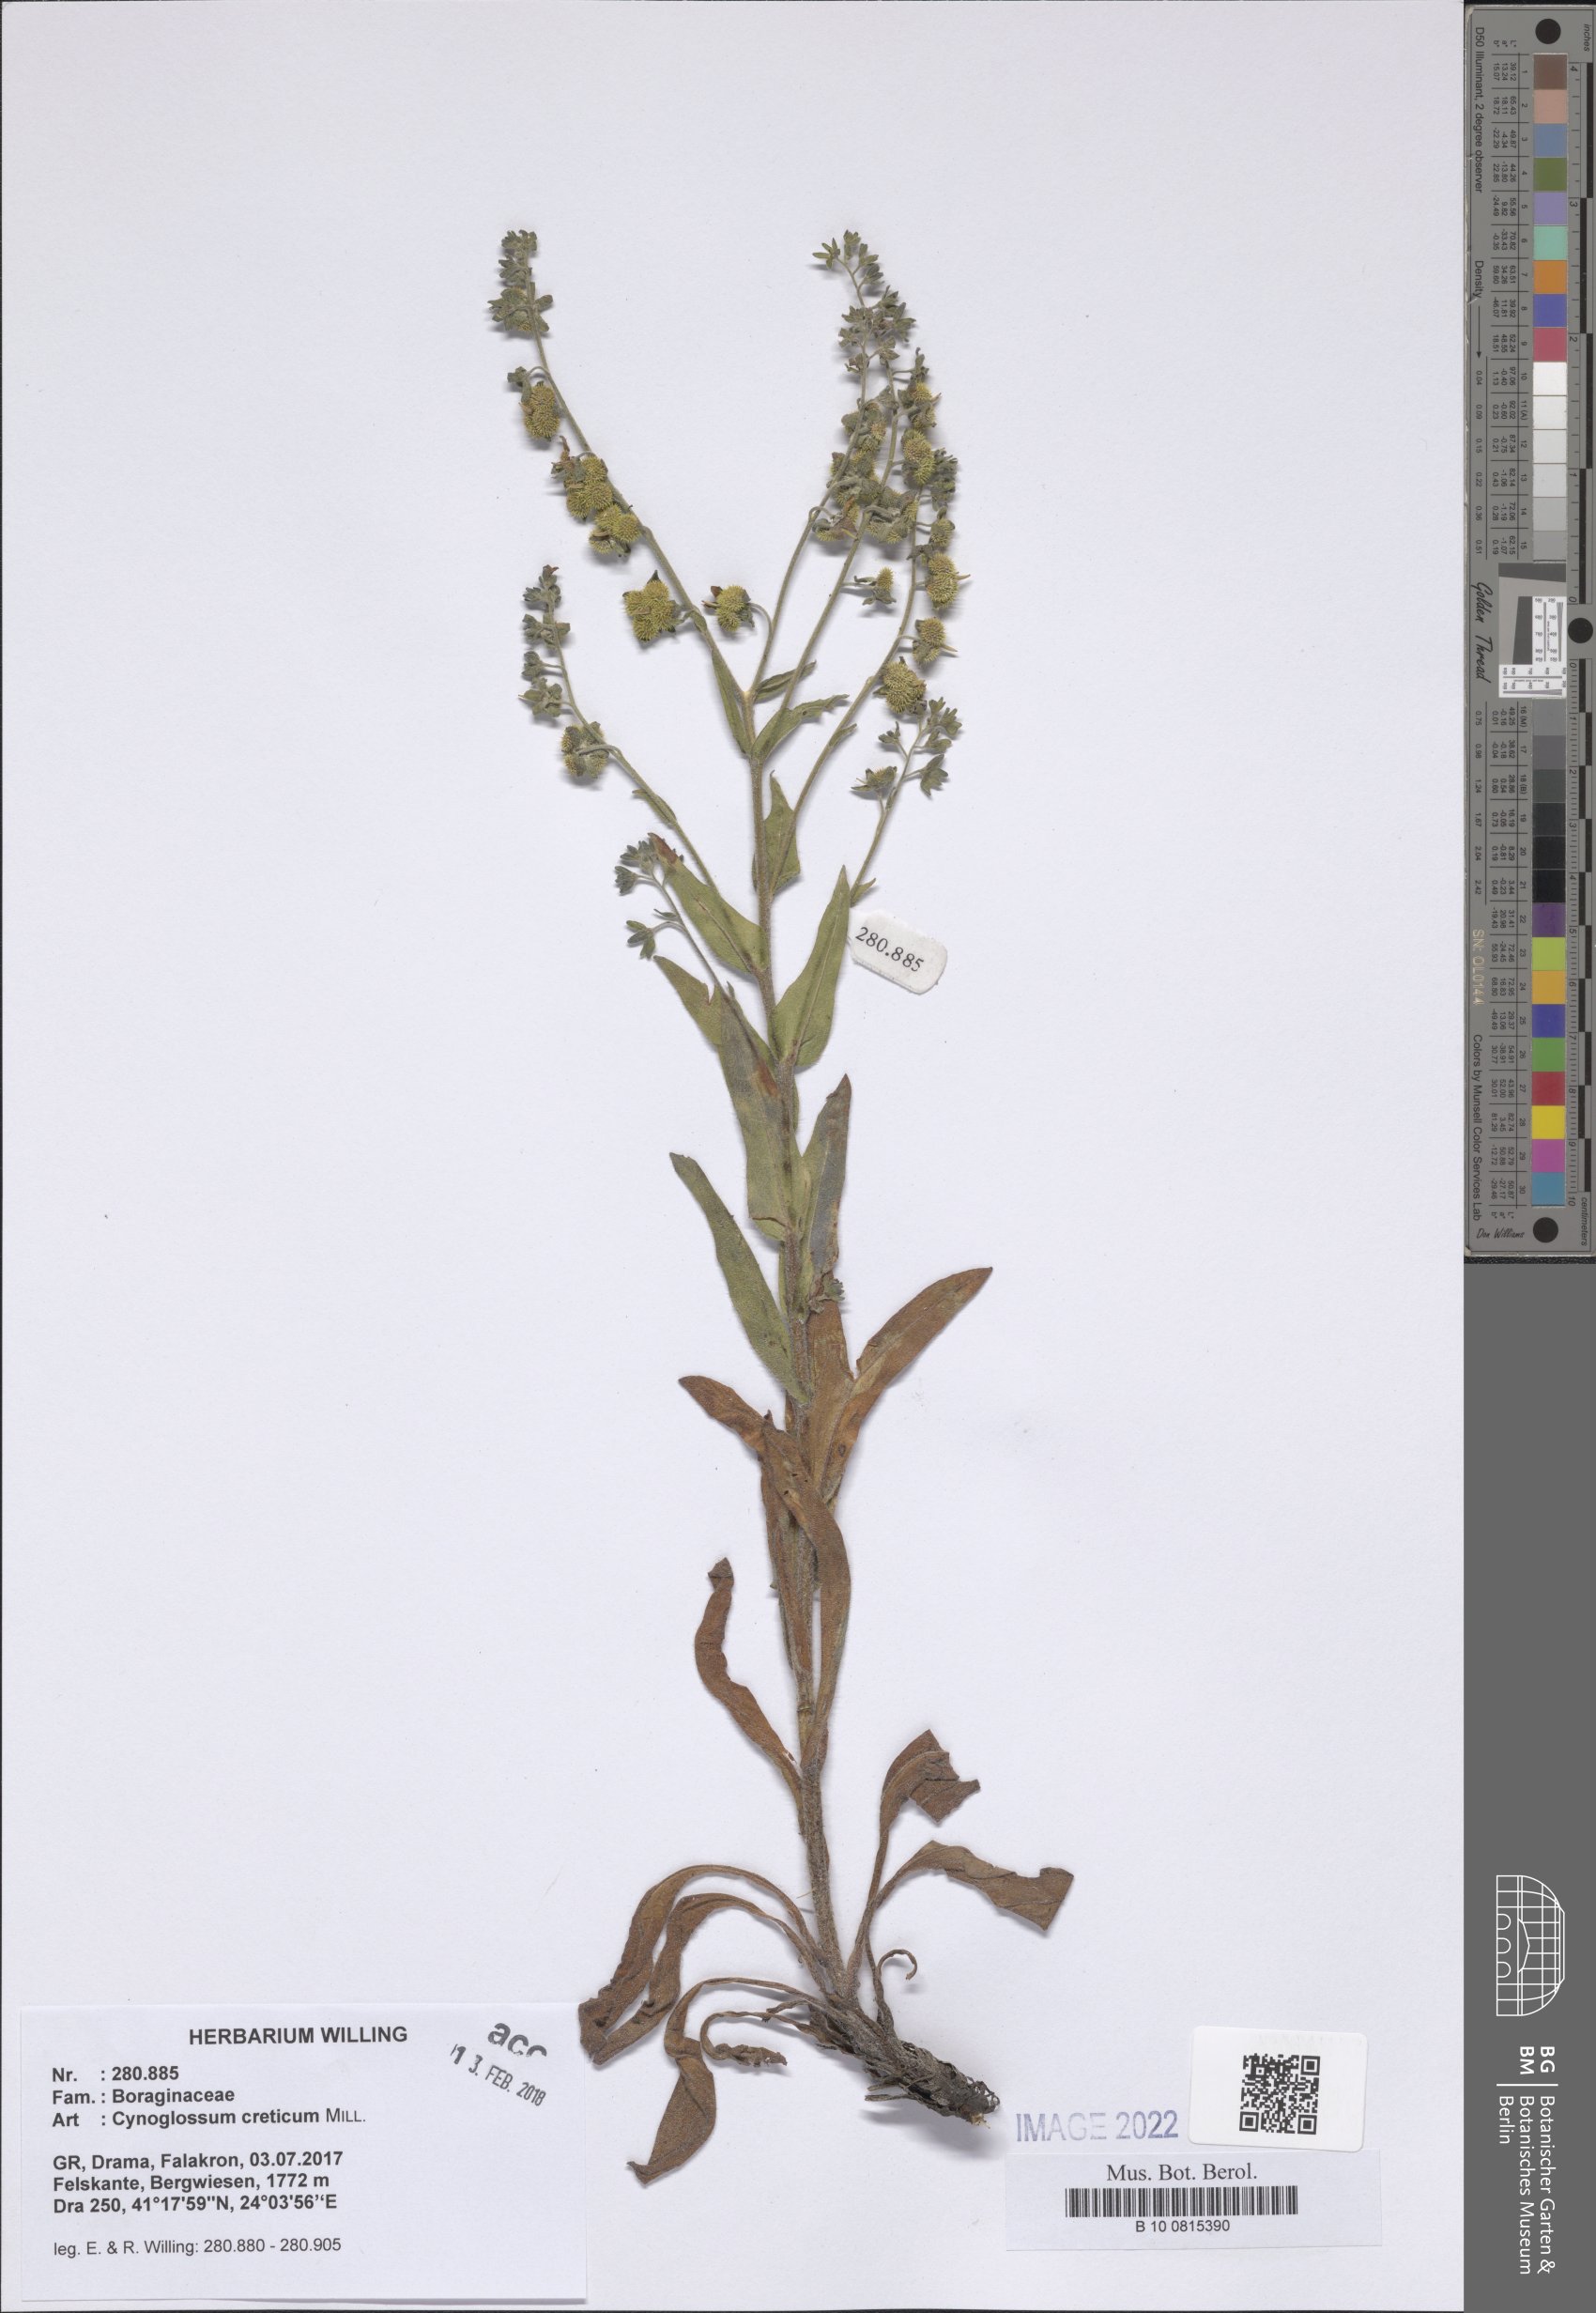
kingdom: Plantae
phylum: Tracheophyta
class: Magnoliopsida
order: Boraginales
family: Boraginaceae
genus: Cynoglossum
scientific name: Cynoglossum creticum
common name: Blue hound's tongue
